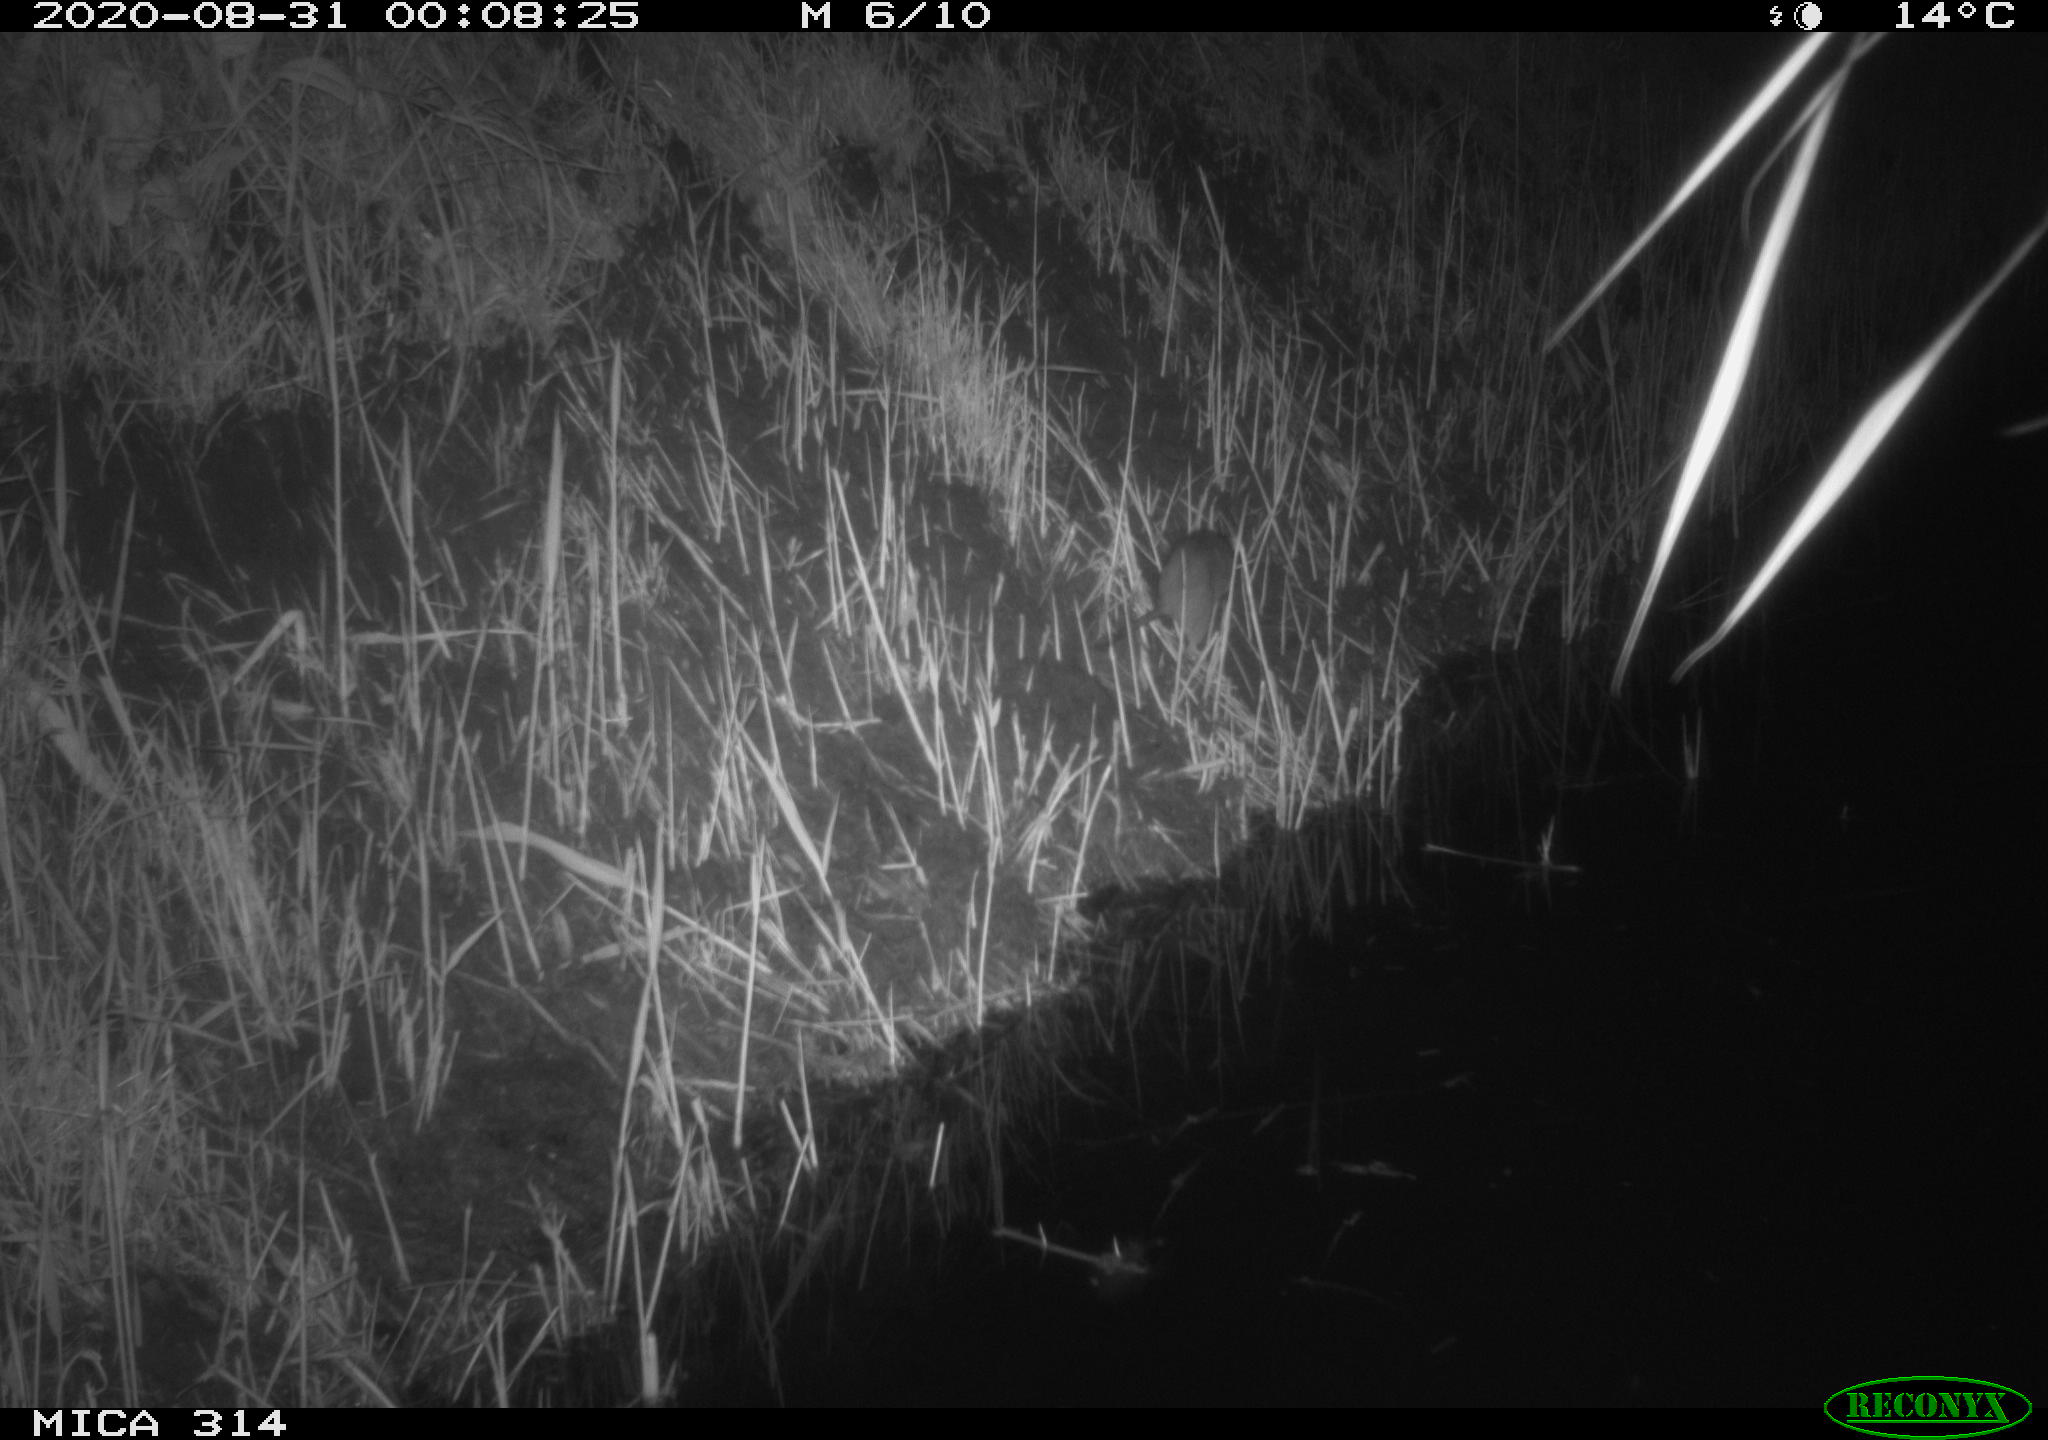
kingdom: Animalia
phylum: Chordata
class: Mammalia
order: Rodentia
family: Muridae
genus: Rattus
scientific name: Rattus norvegicus
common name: Brown rat
